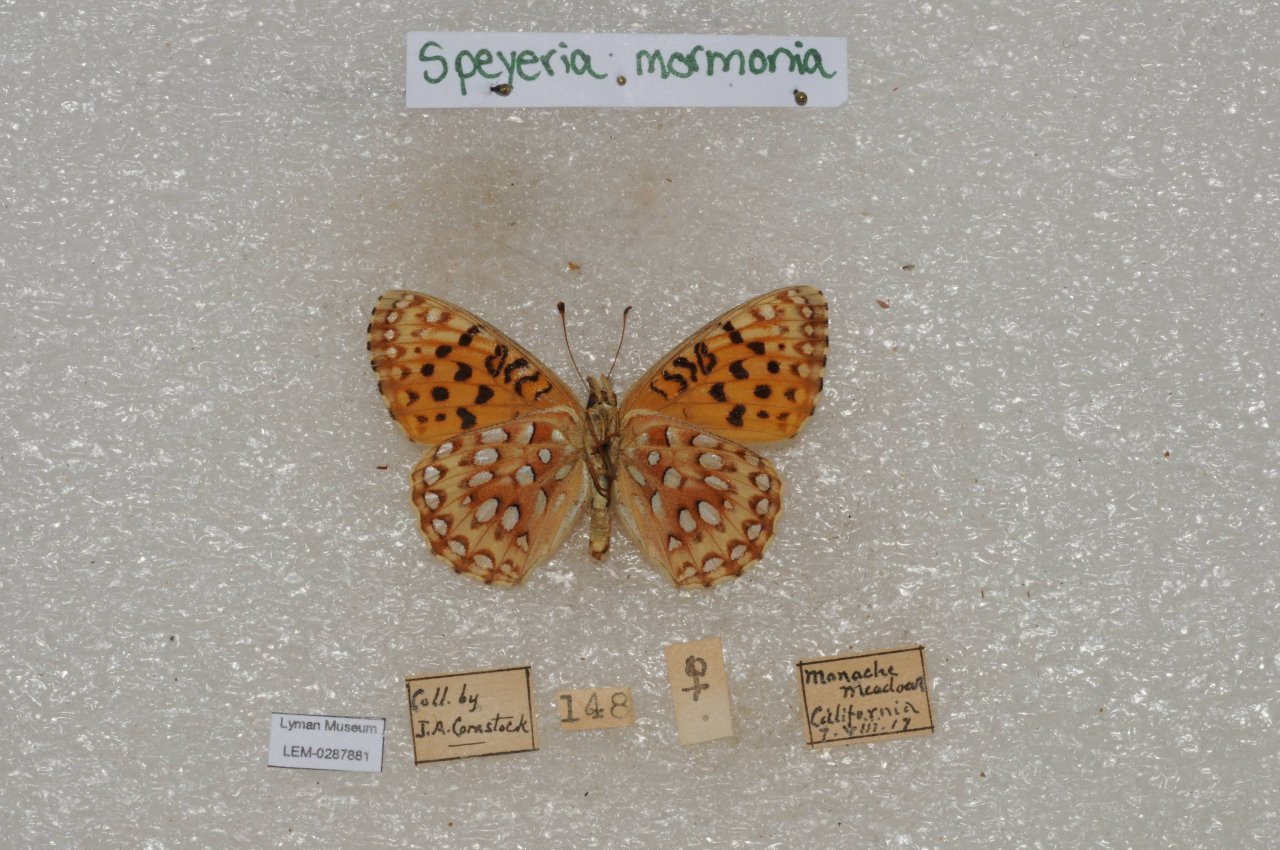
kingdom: Animalia
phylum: Arthropoda
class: Insecta
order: Lepidoptera
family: Nymphalidae
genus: Speyeria
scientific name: Speyeria mormonia
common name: Mormon Fritillary
